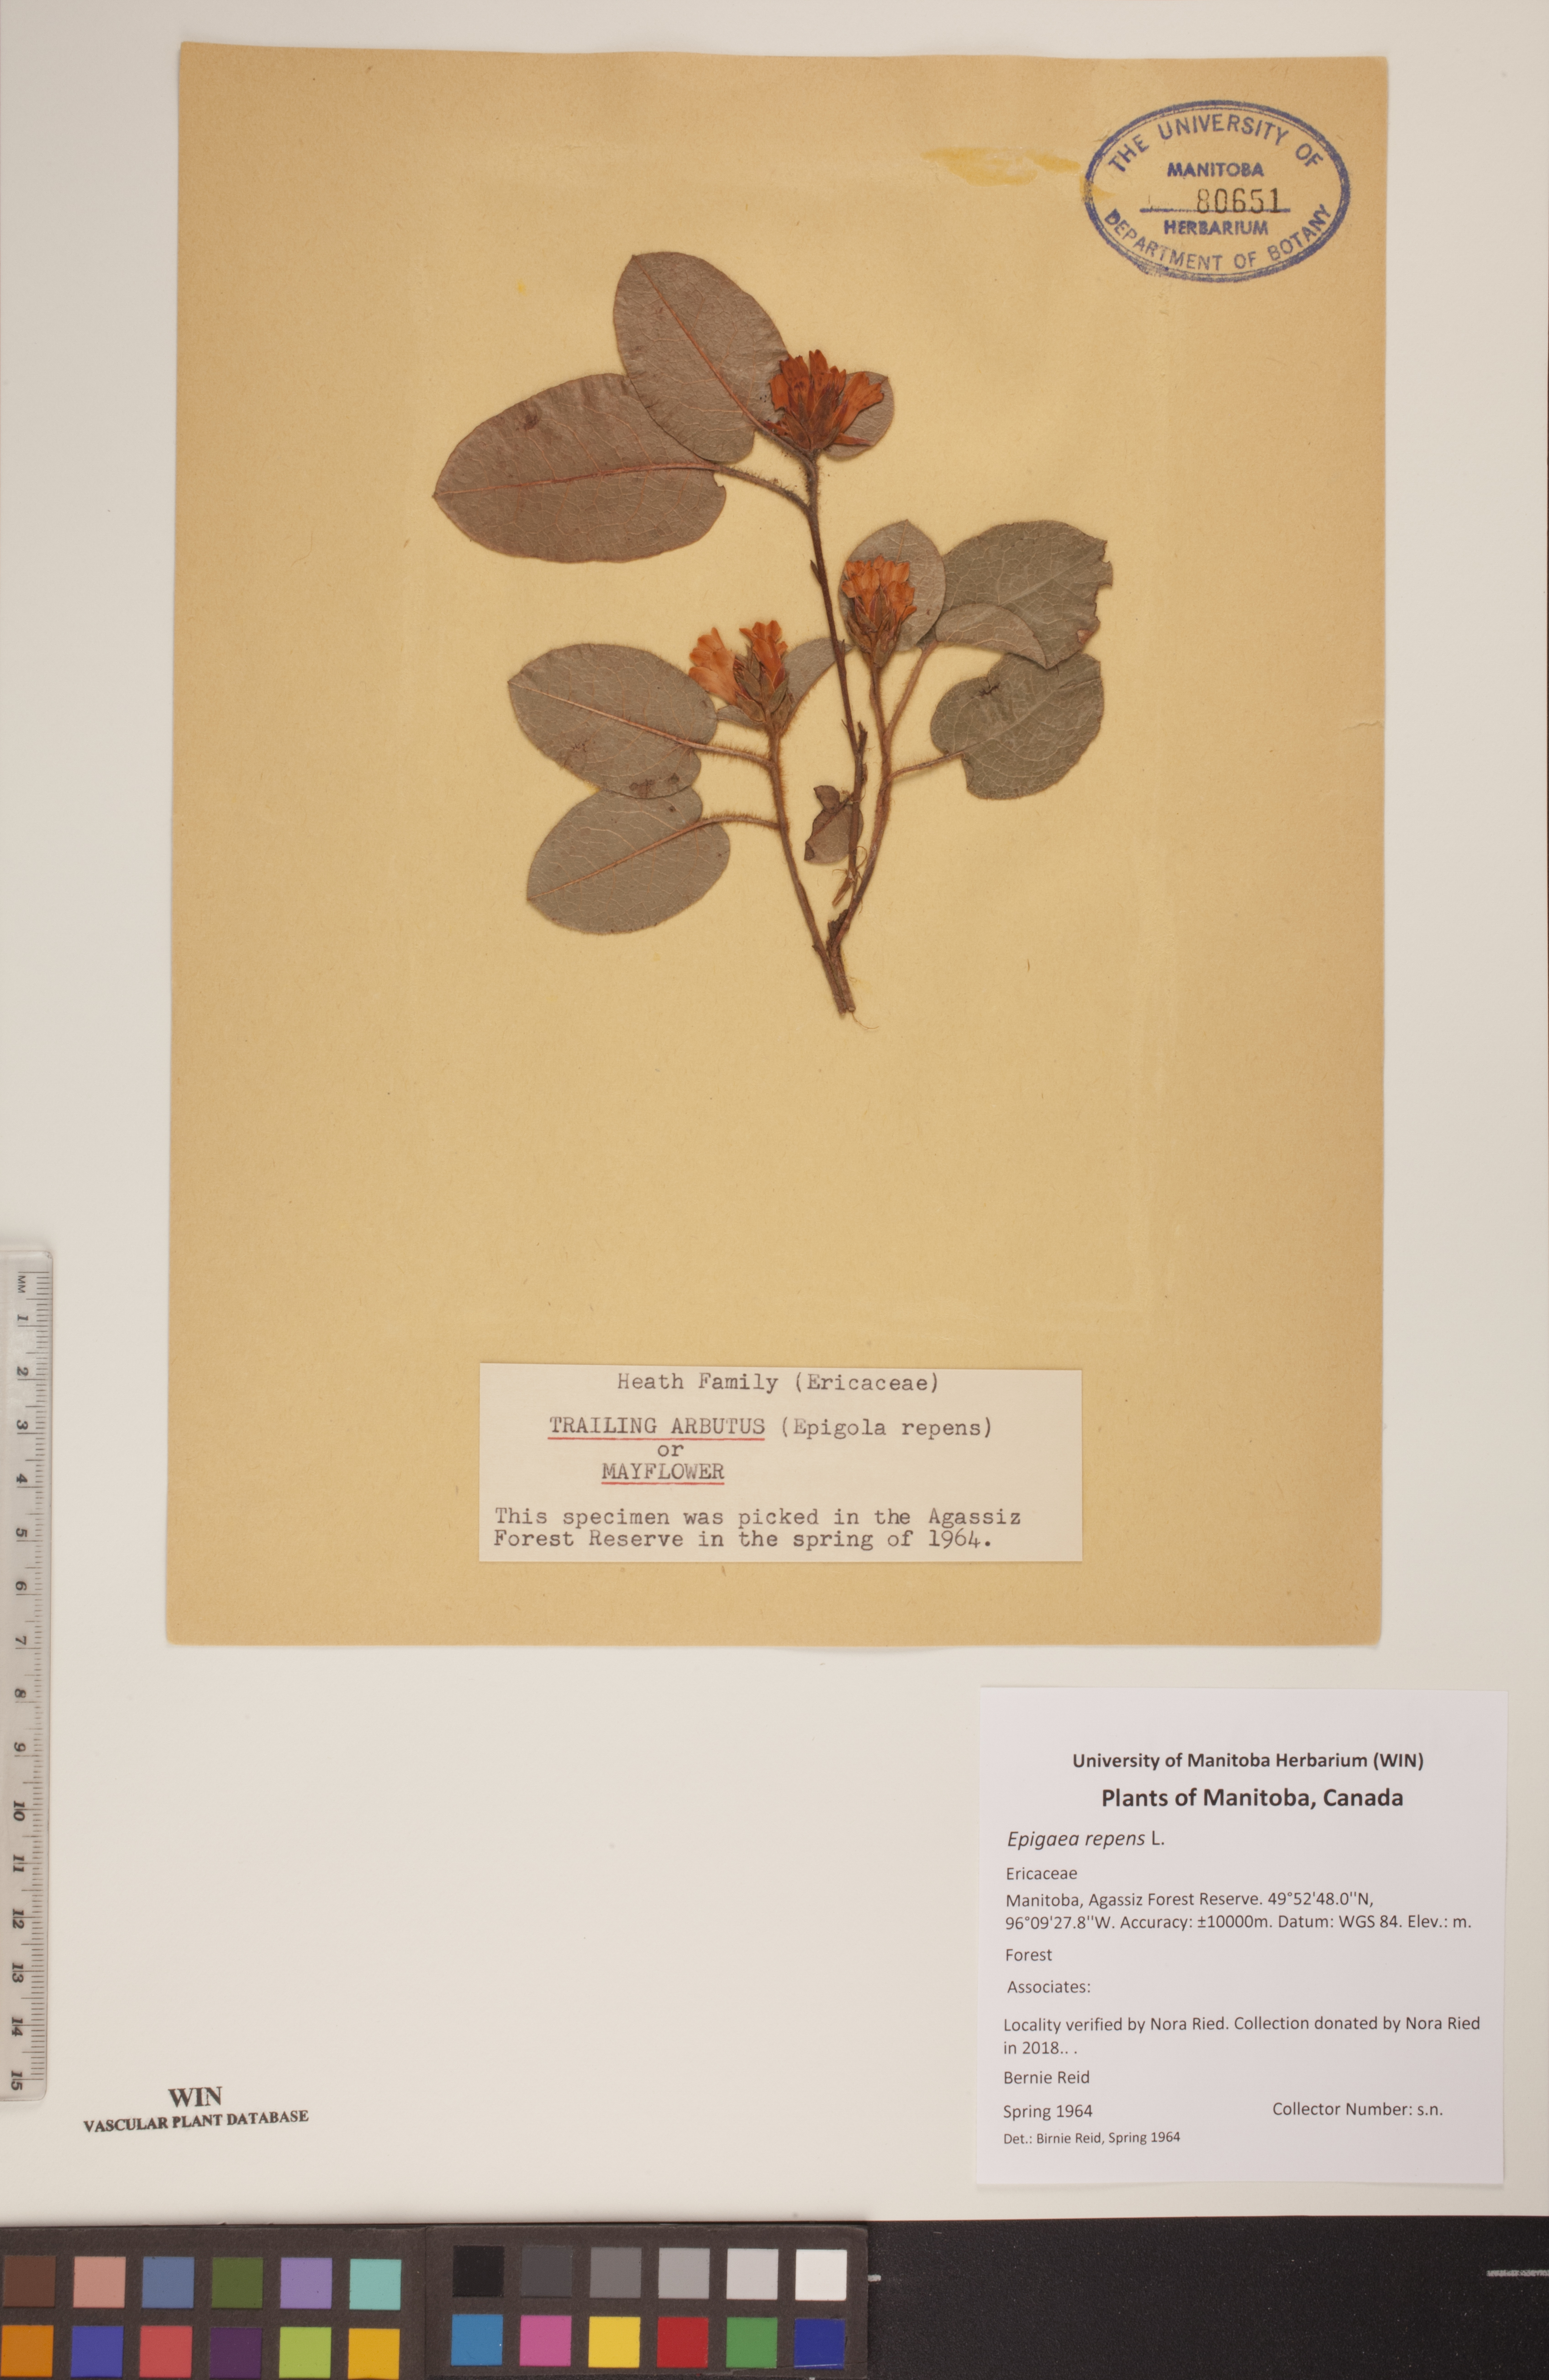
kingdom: Plantae
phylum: Tracheophyta
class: Magnoliopsida
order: Ericales
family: Ericaceae
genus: Epigaea
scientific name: Epigaea repens
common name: Gravelroot
